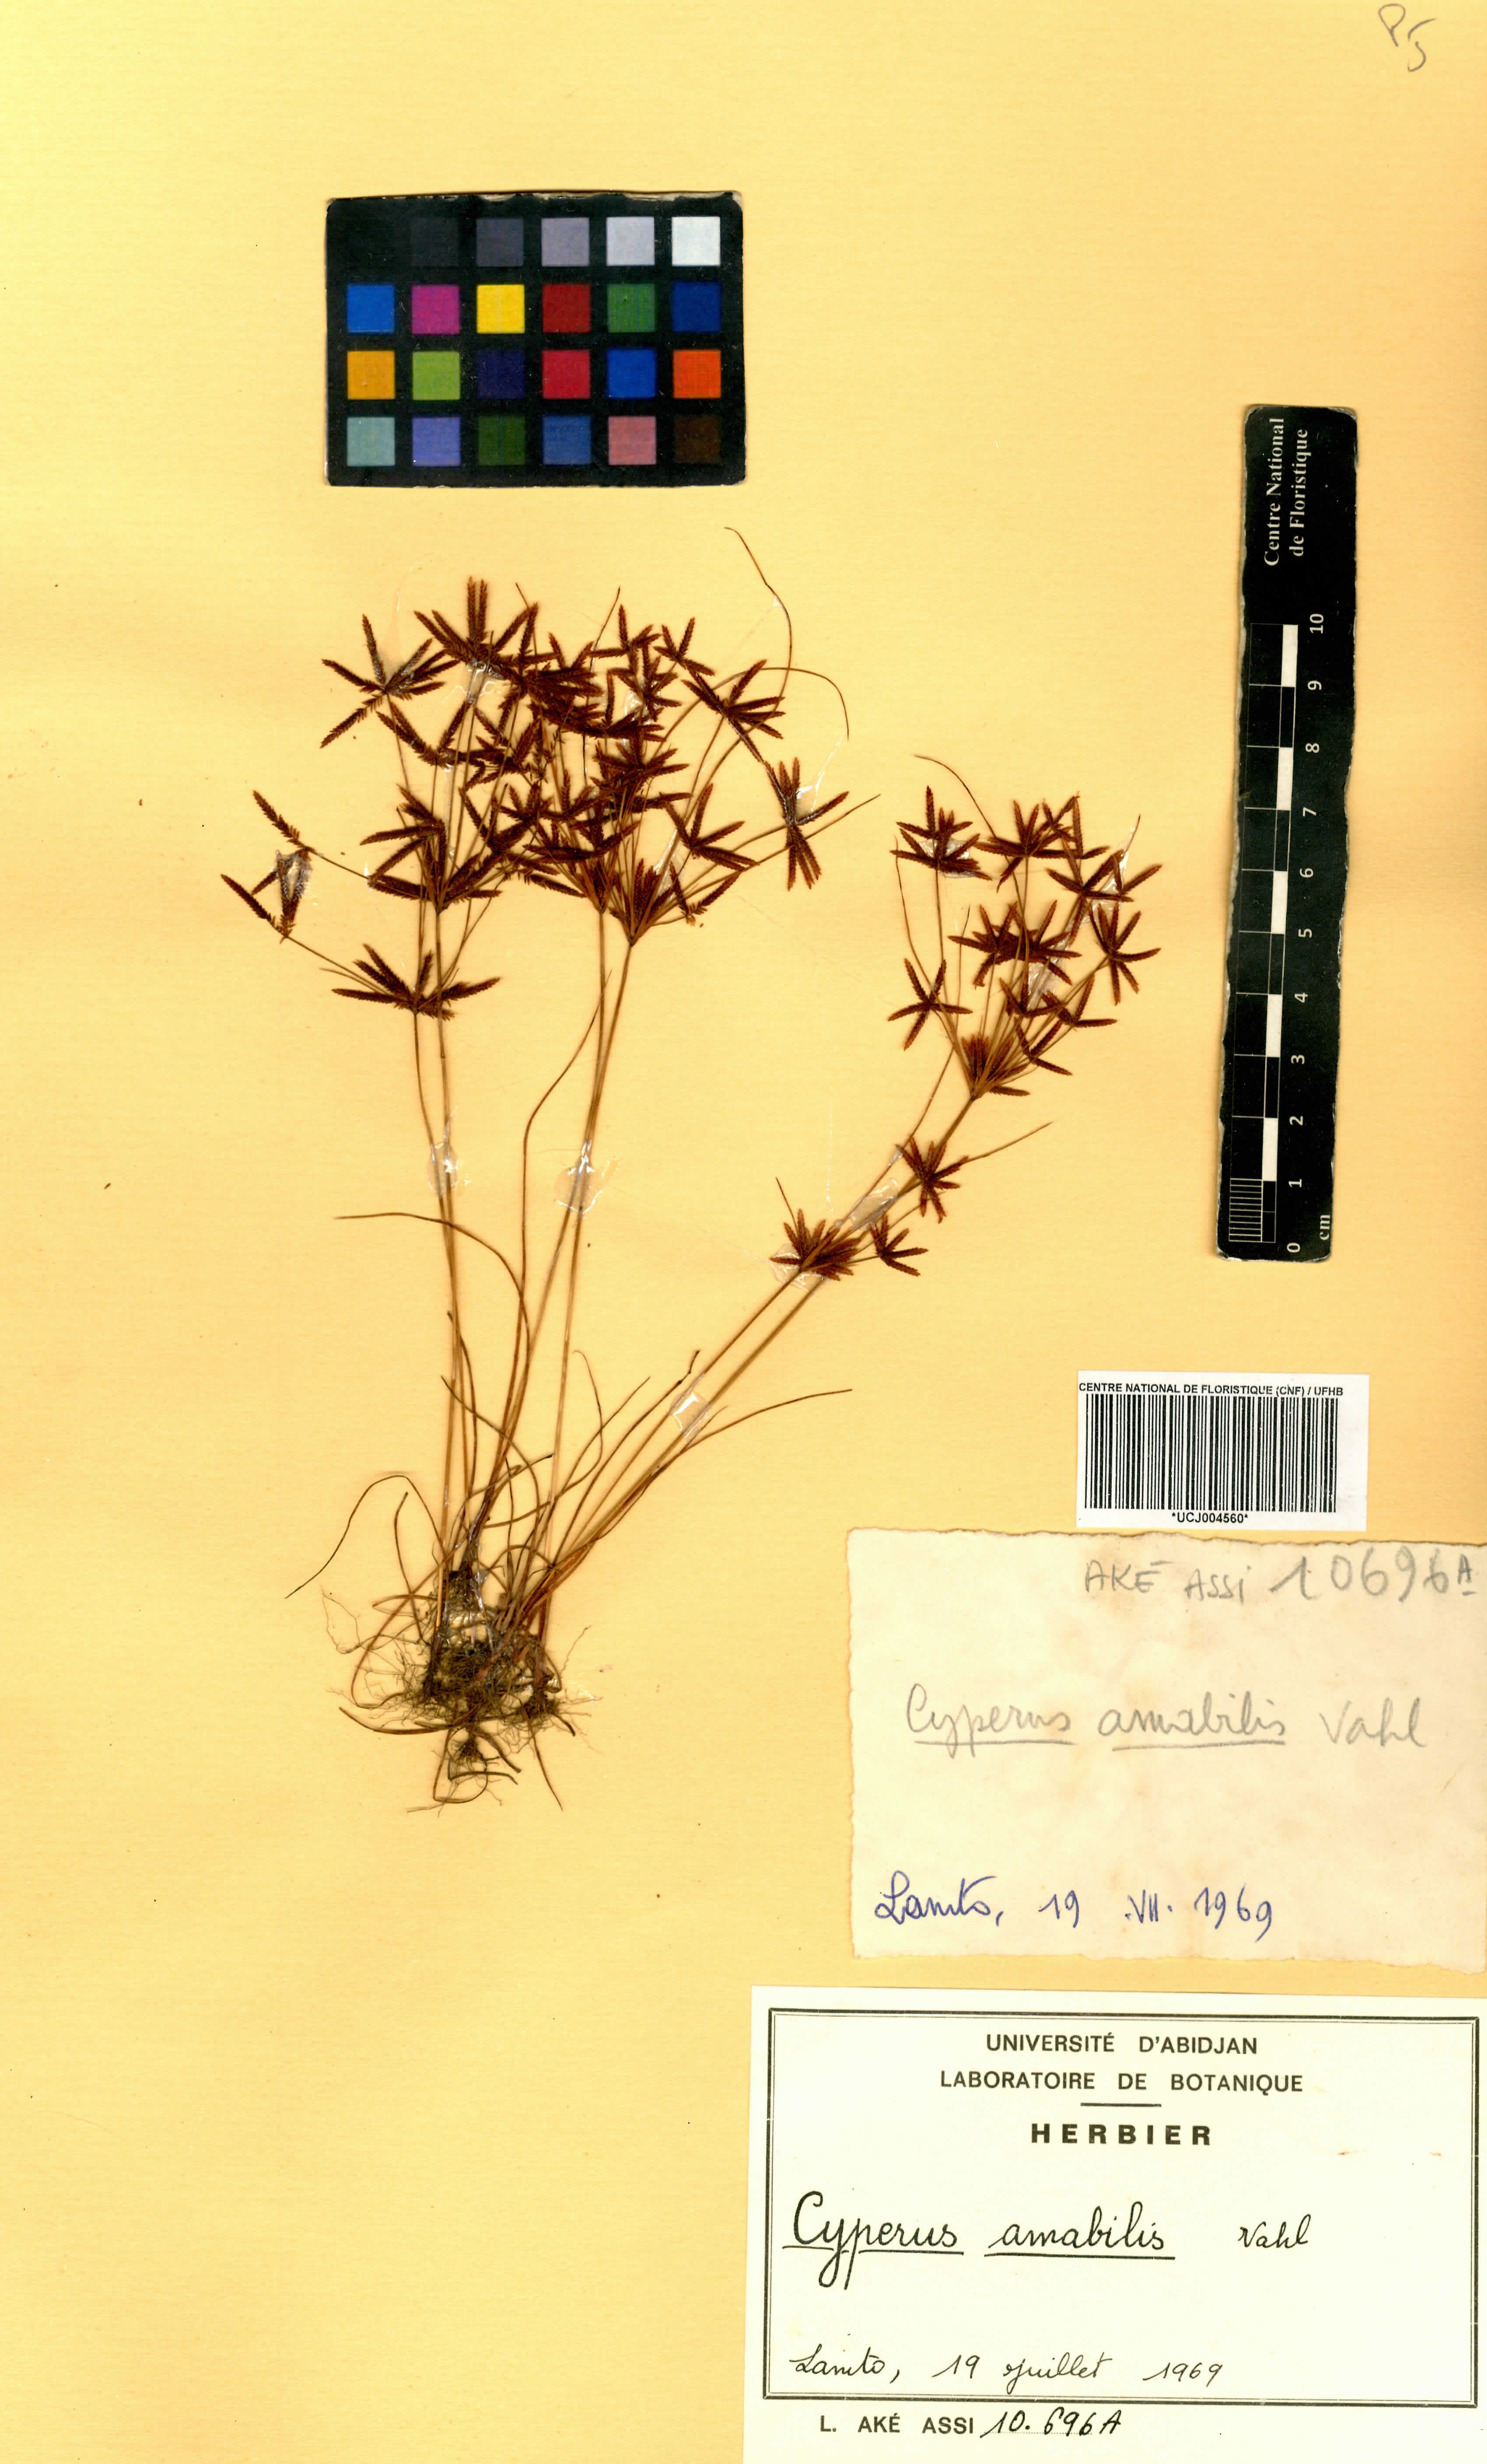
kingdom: Plantae
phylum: Tracheophyta
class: Liliopsida
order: Poales
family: Cyperaceae
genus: Cyperus
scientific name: Cyperus amabilis
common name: Foothill flat sedge
